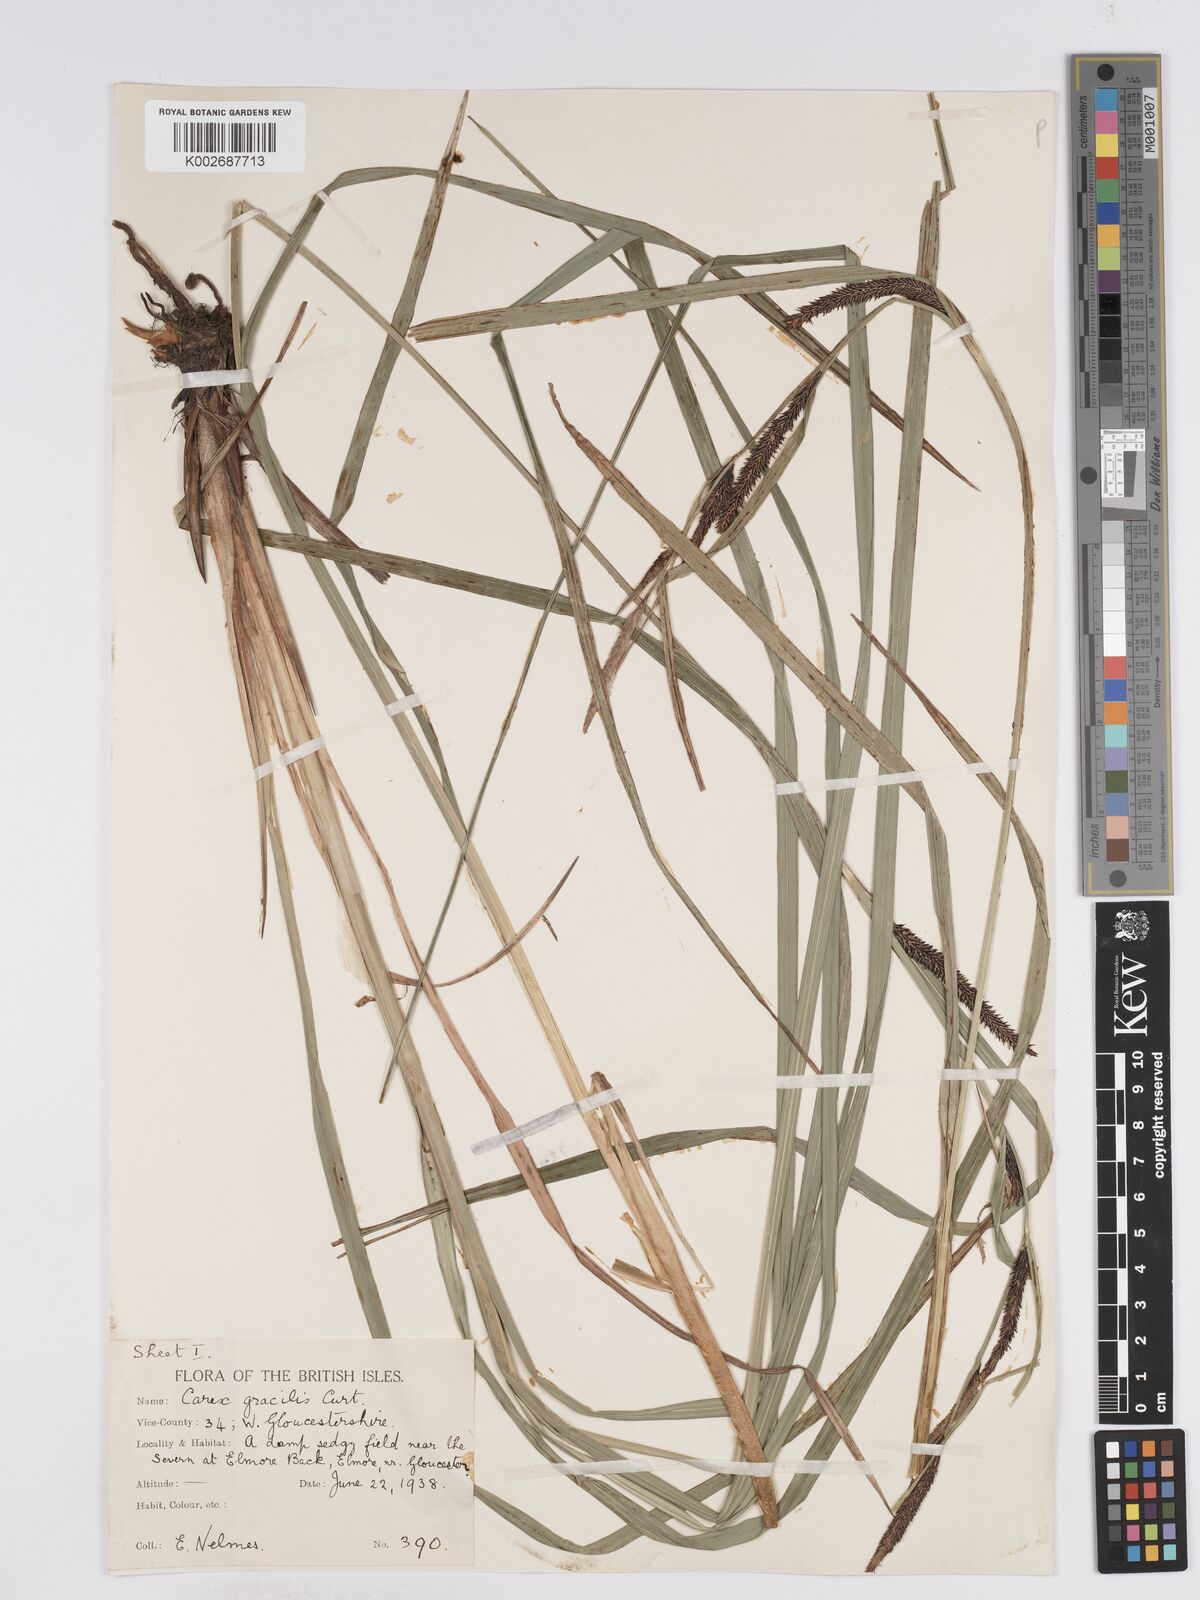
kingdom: Plantae
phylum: Tracheophyta
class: Liliopsida
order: Poales
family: Cyperaceae
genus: Carex
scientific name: Carex acuta
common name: Slender tufted-sedge
